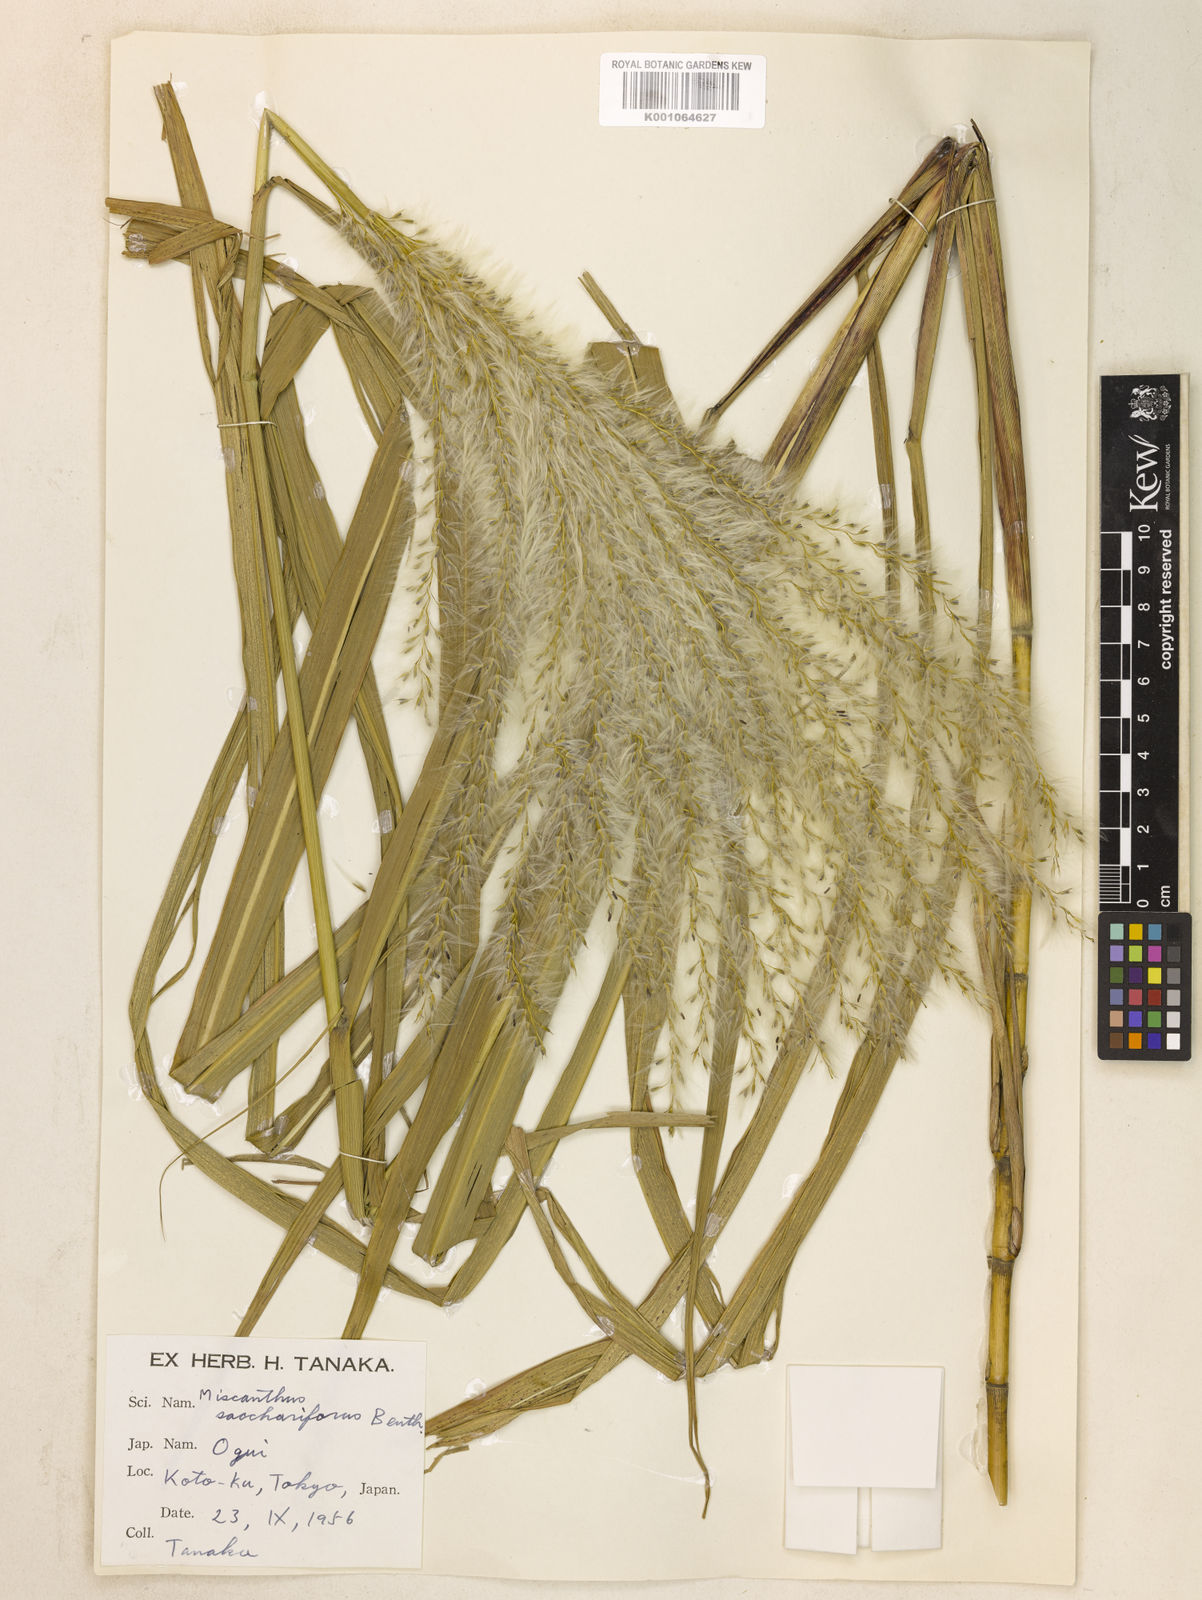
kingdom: Plantae
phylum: Tracheophyta
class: Liliopsida
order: Poales
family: Poaceae
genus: Miscanthus
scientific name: Miscanthus
